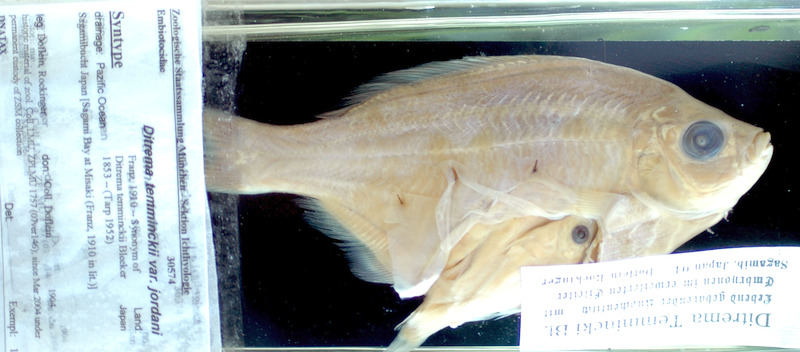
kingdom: Animalia
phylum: Chordata
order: Perciformes
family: Embiotocidae
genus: Ditrema
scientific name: Ditrema jordani
